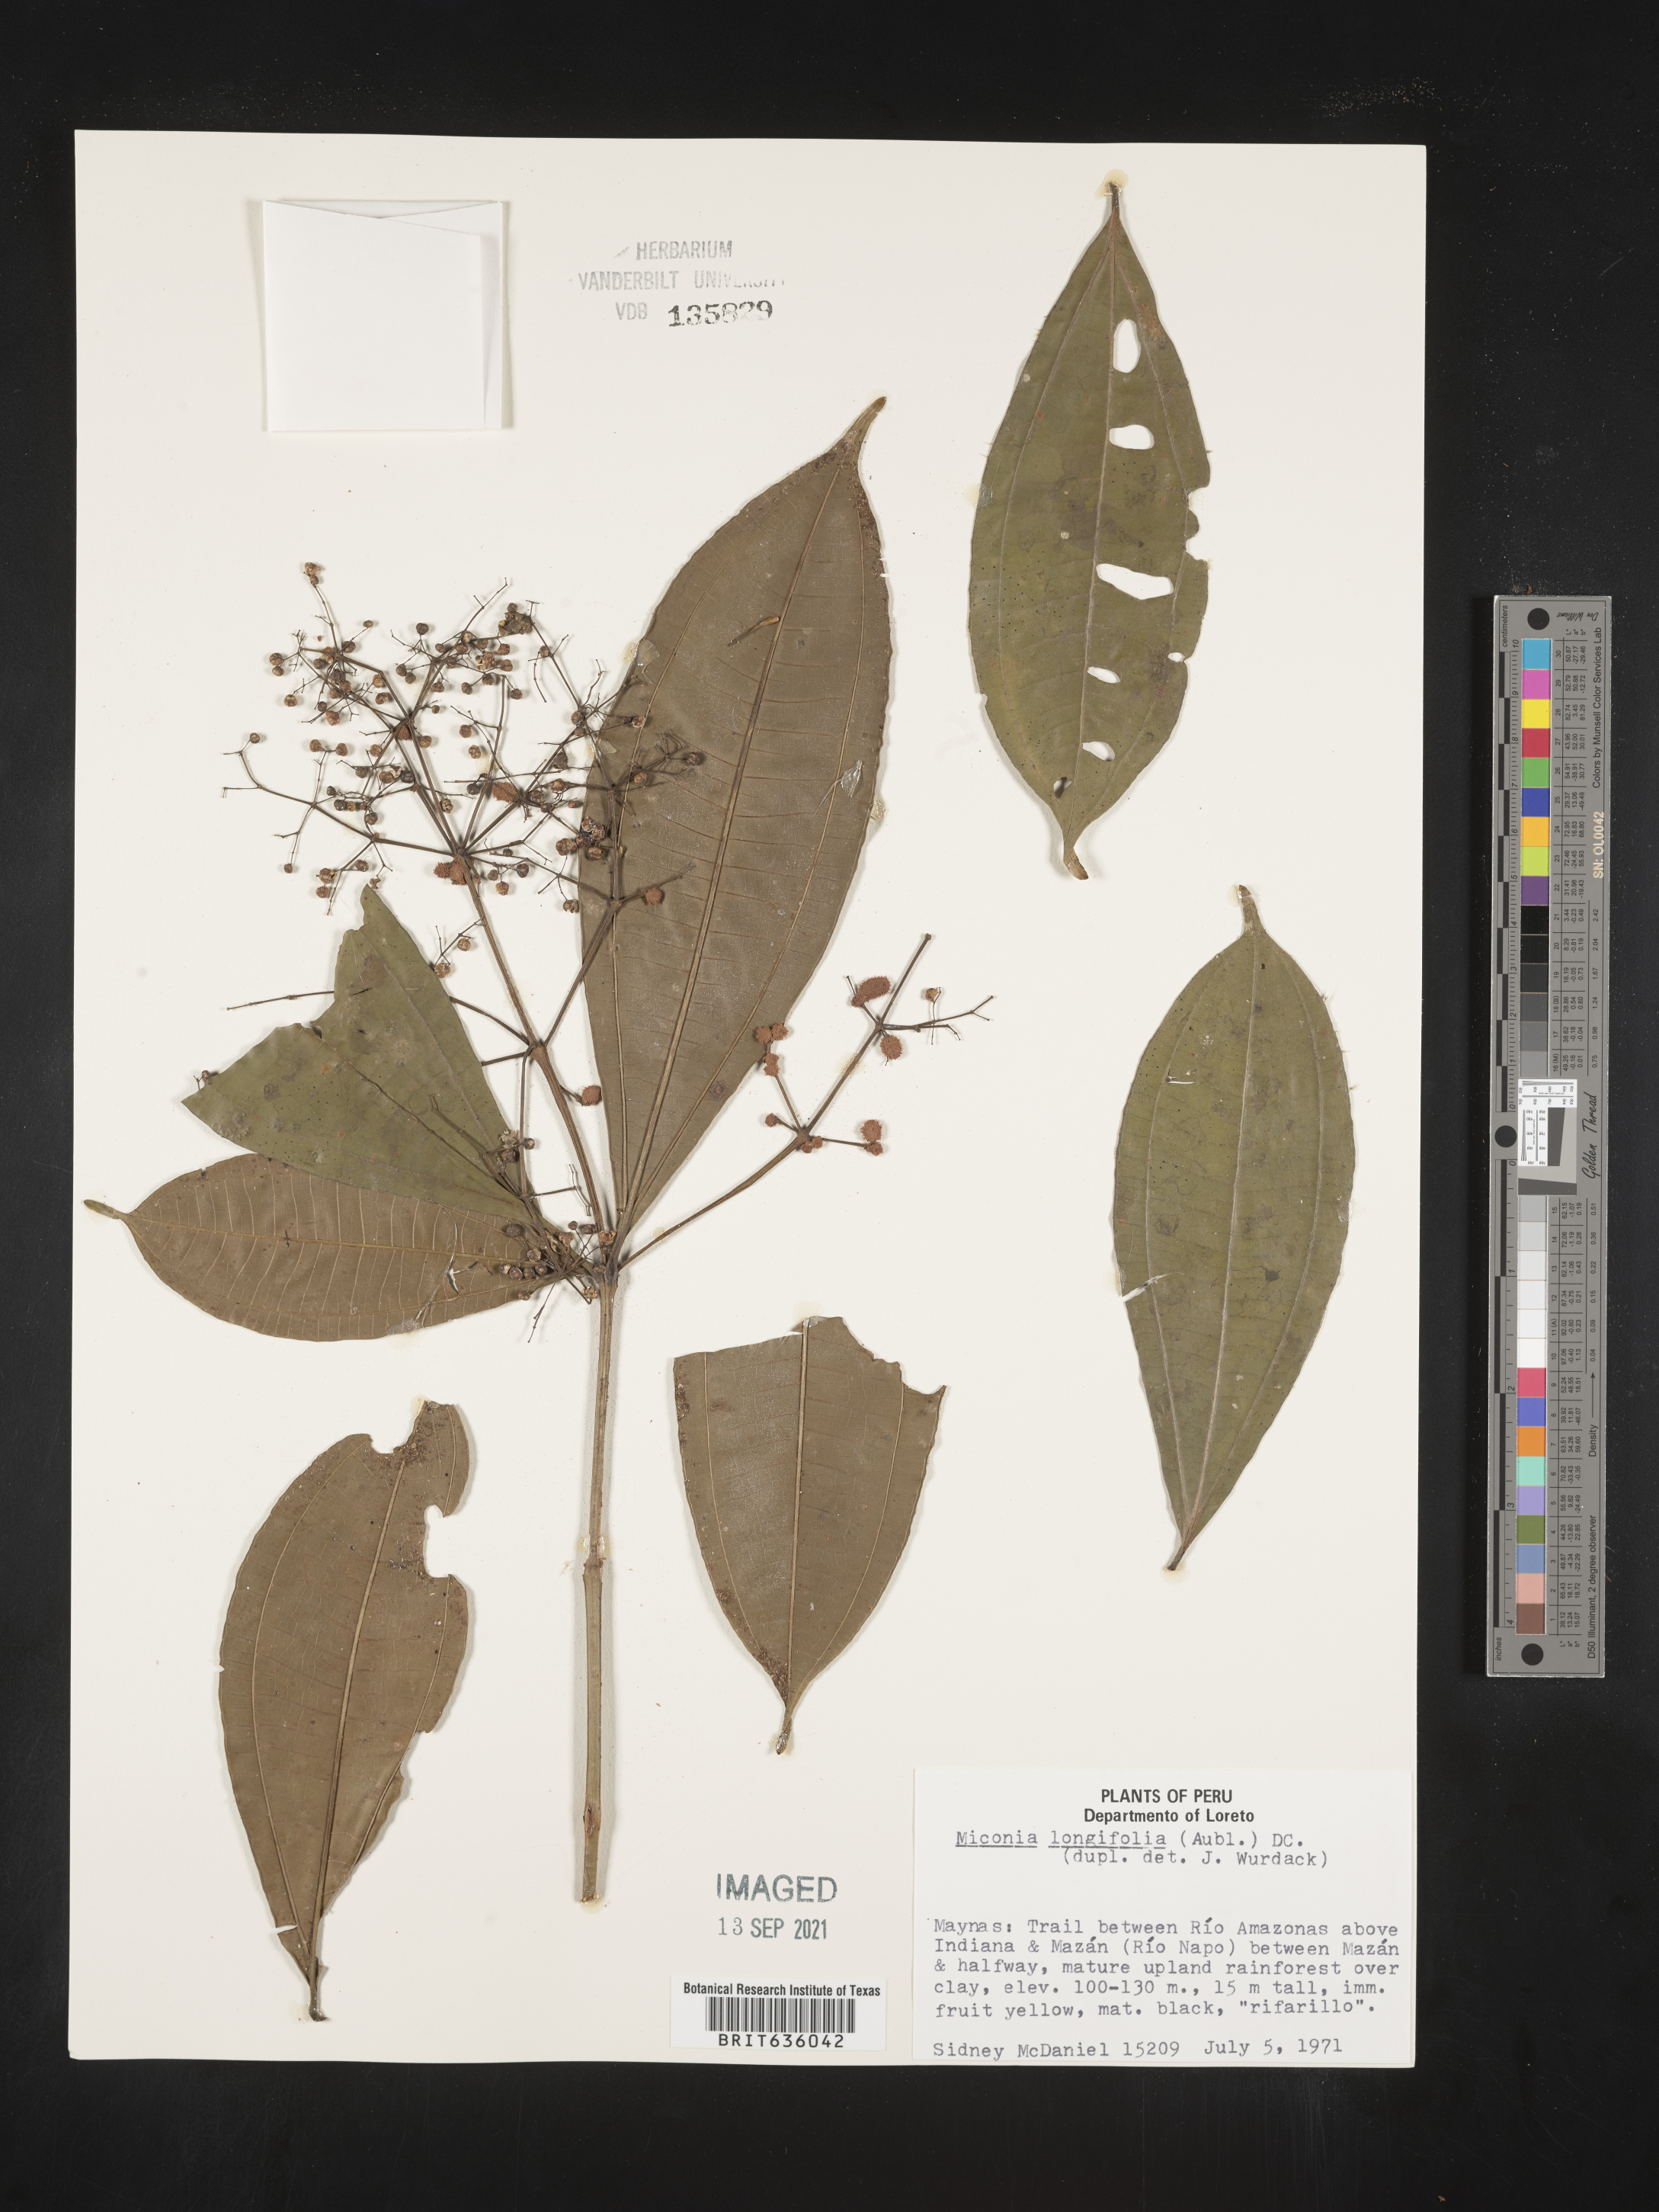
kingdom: Plantae
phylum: Tracheophyta
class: Magnoliopsida
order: Myrtales
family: Melastomataceae
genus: Miconia
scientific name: Miconia
